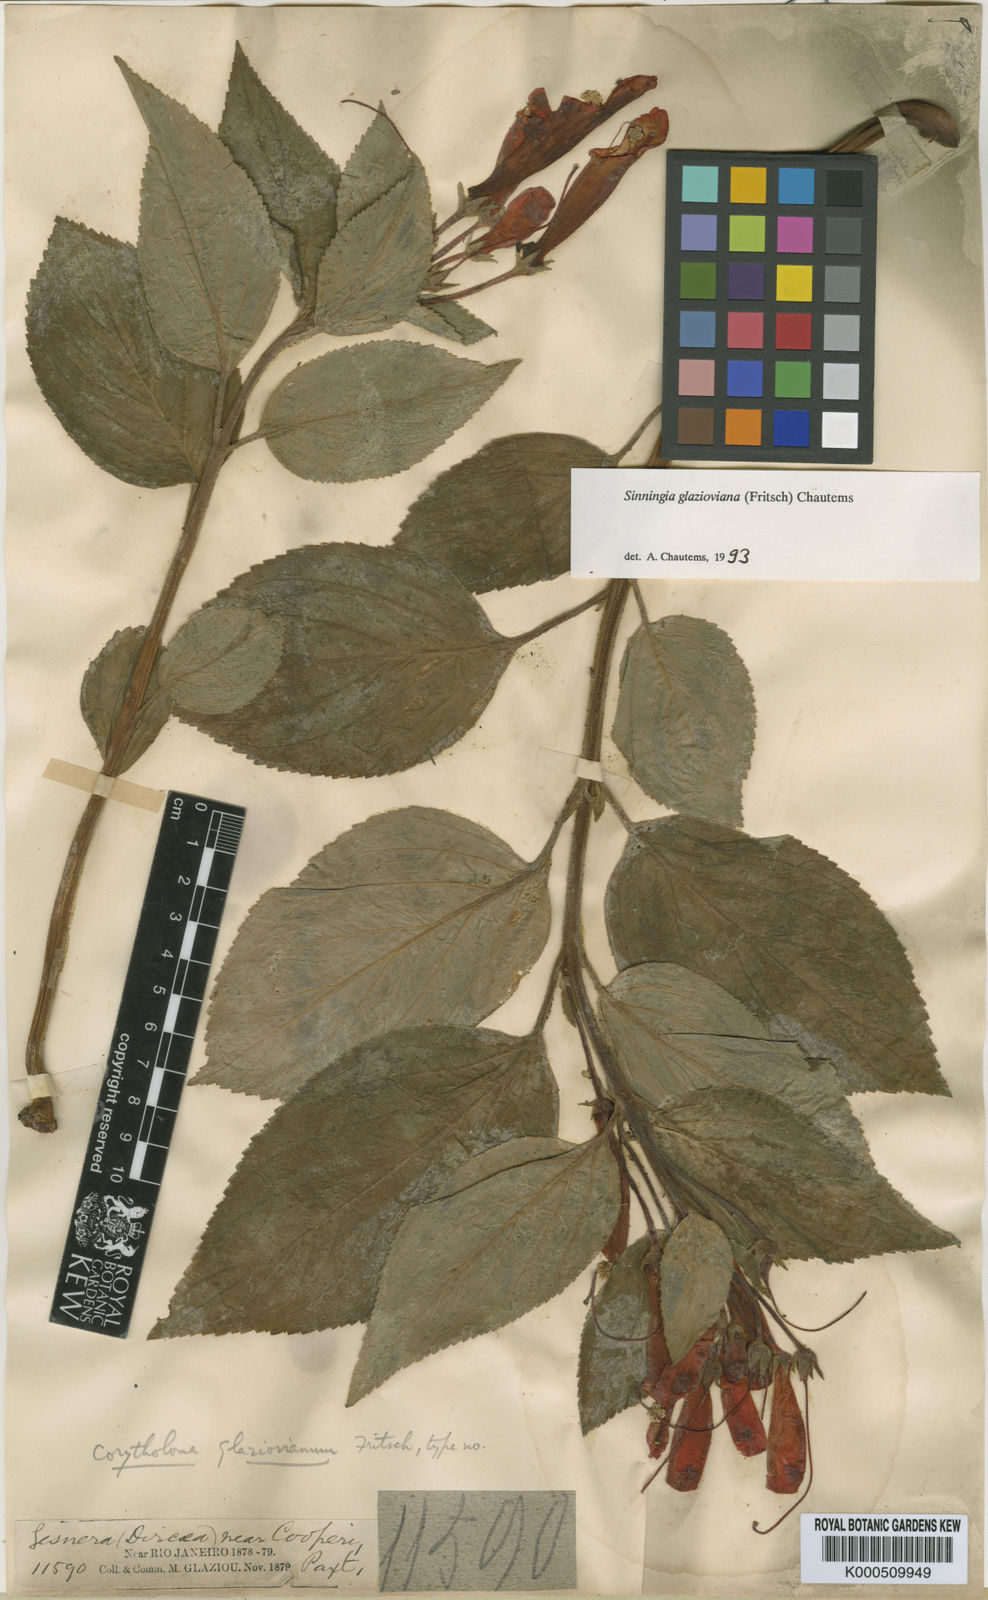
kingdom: Plantae
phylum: Tracheophyta
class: Magnoliopsida
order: Lamiales
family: Gesneriaceae
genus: Sinningia
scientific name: Sinningia glazioviana
